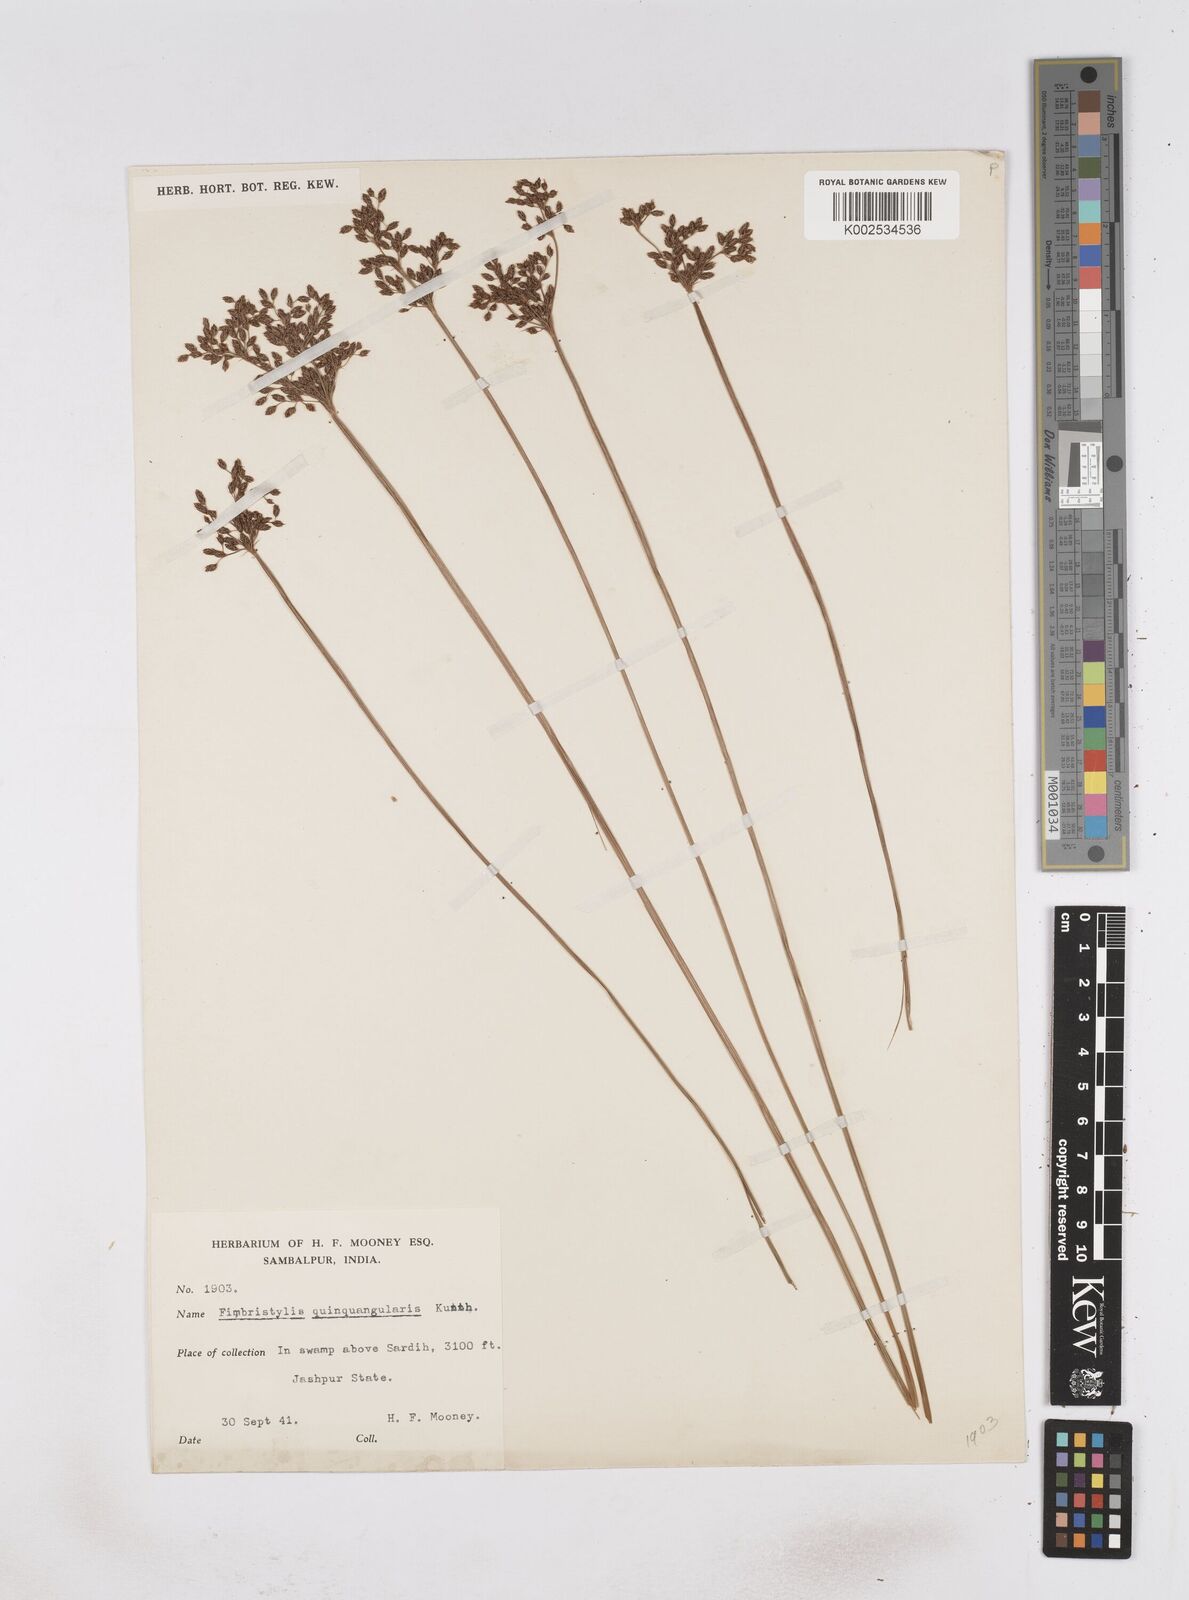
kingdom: Plantae
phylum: Tracheophyta
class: Liliopsida
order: Poales
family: Cyperaceae
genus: Fimbristylis
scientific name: Fimbristylis quinquangularis
